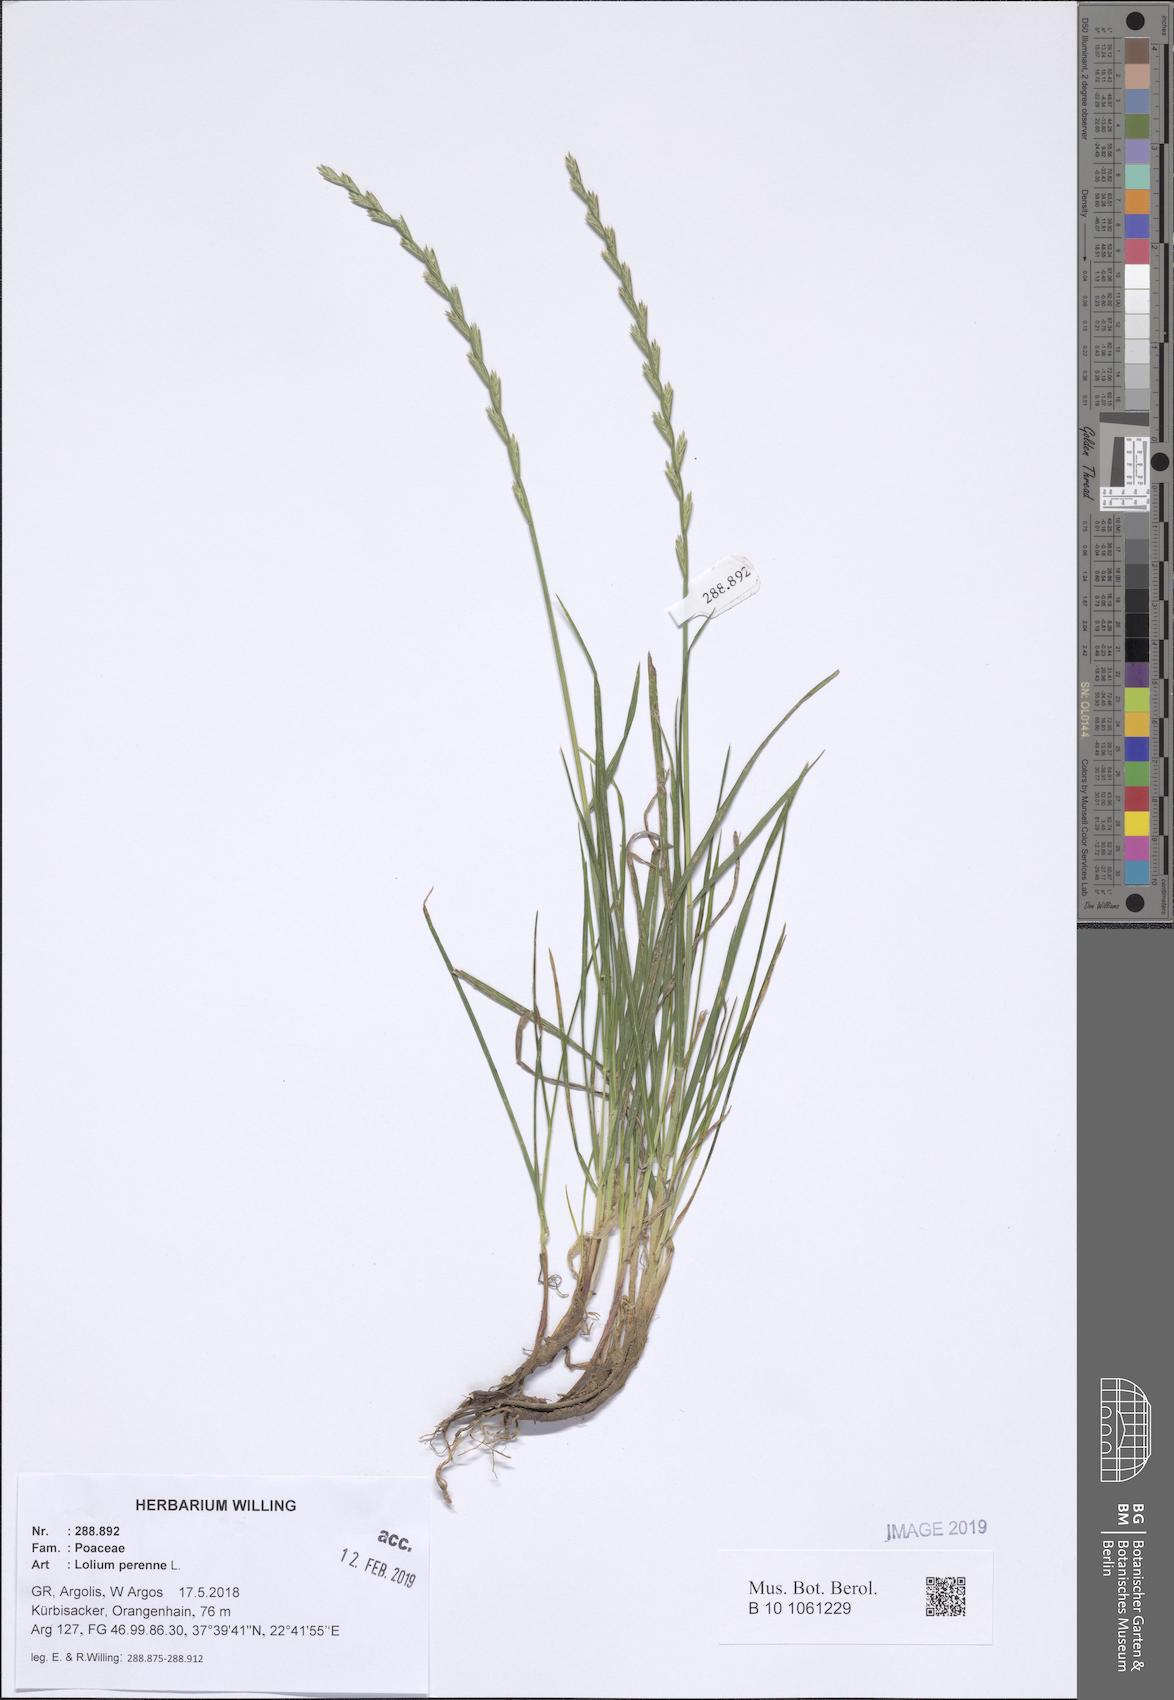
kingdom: Plantae
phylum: Tracheophyta
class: Liliopsida
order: Poales
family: Poaceae
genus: Lolium
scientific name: Lolium perenne
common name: Perennial ryegrass
